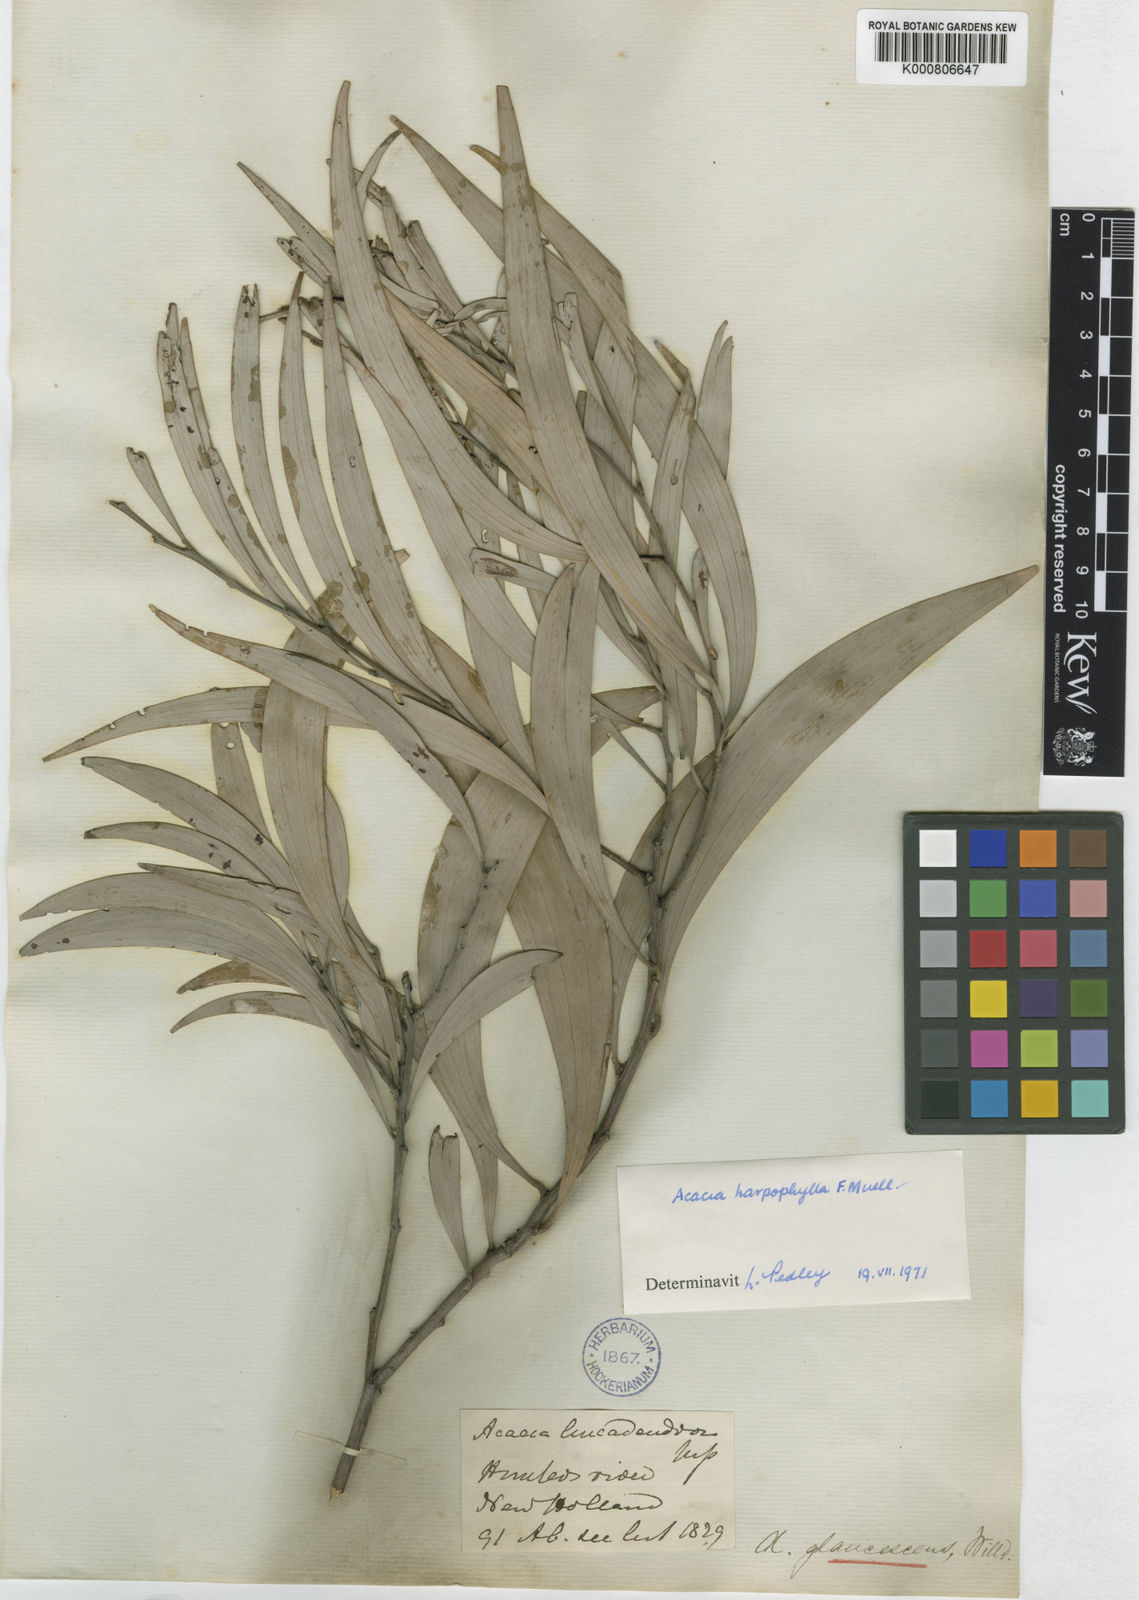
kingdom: Plantae
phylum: Tracheophyta
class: Magnoliopsida
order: Fabales
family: Fabaceae
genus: Acacia
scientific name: Acacia binervia
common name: Coast myall
